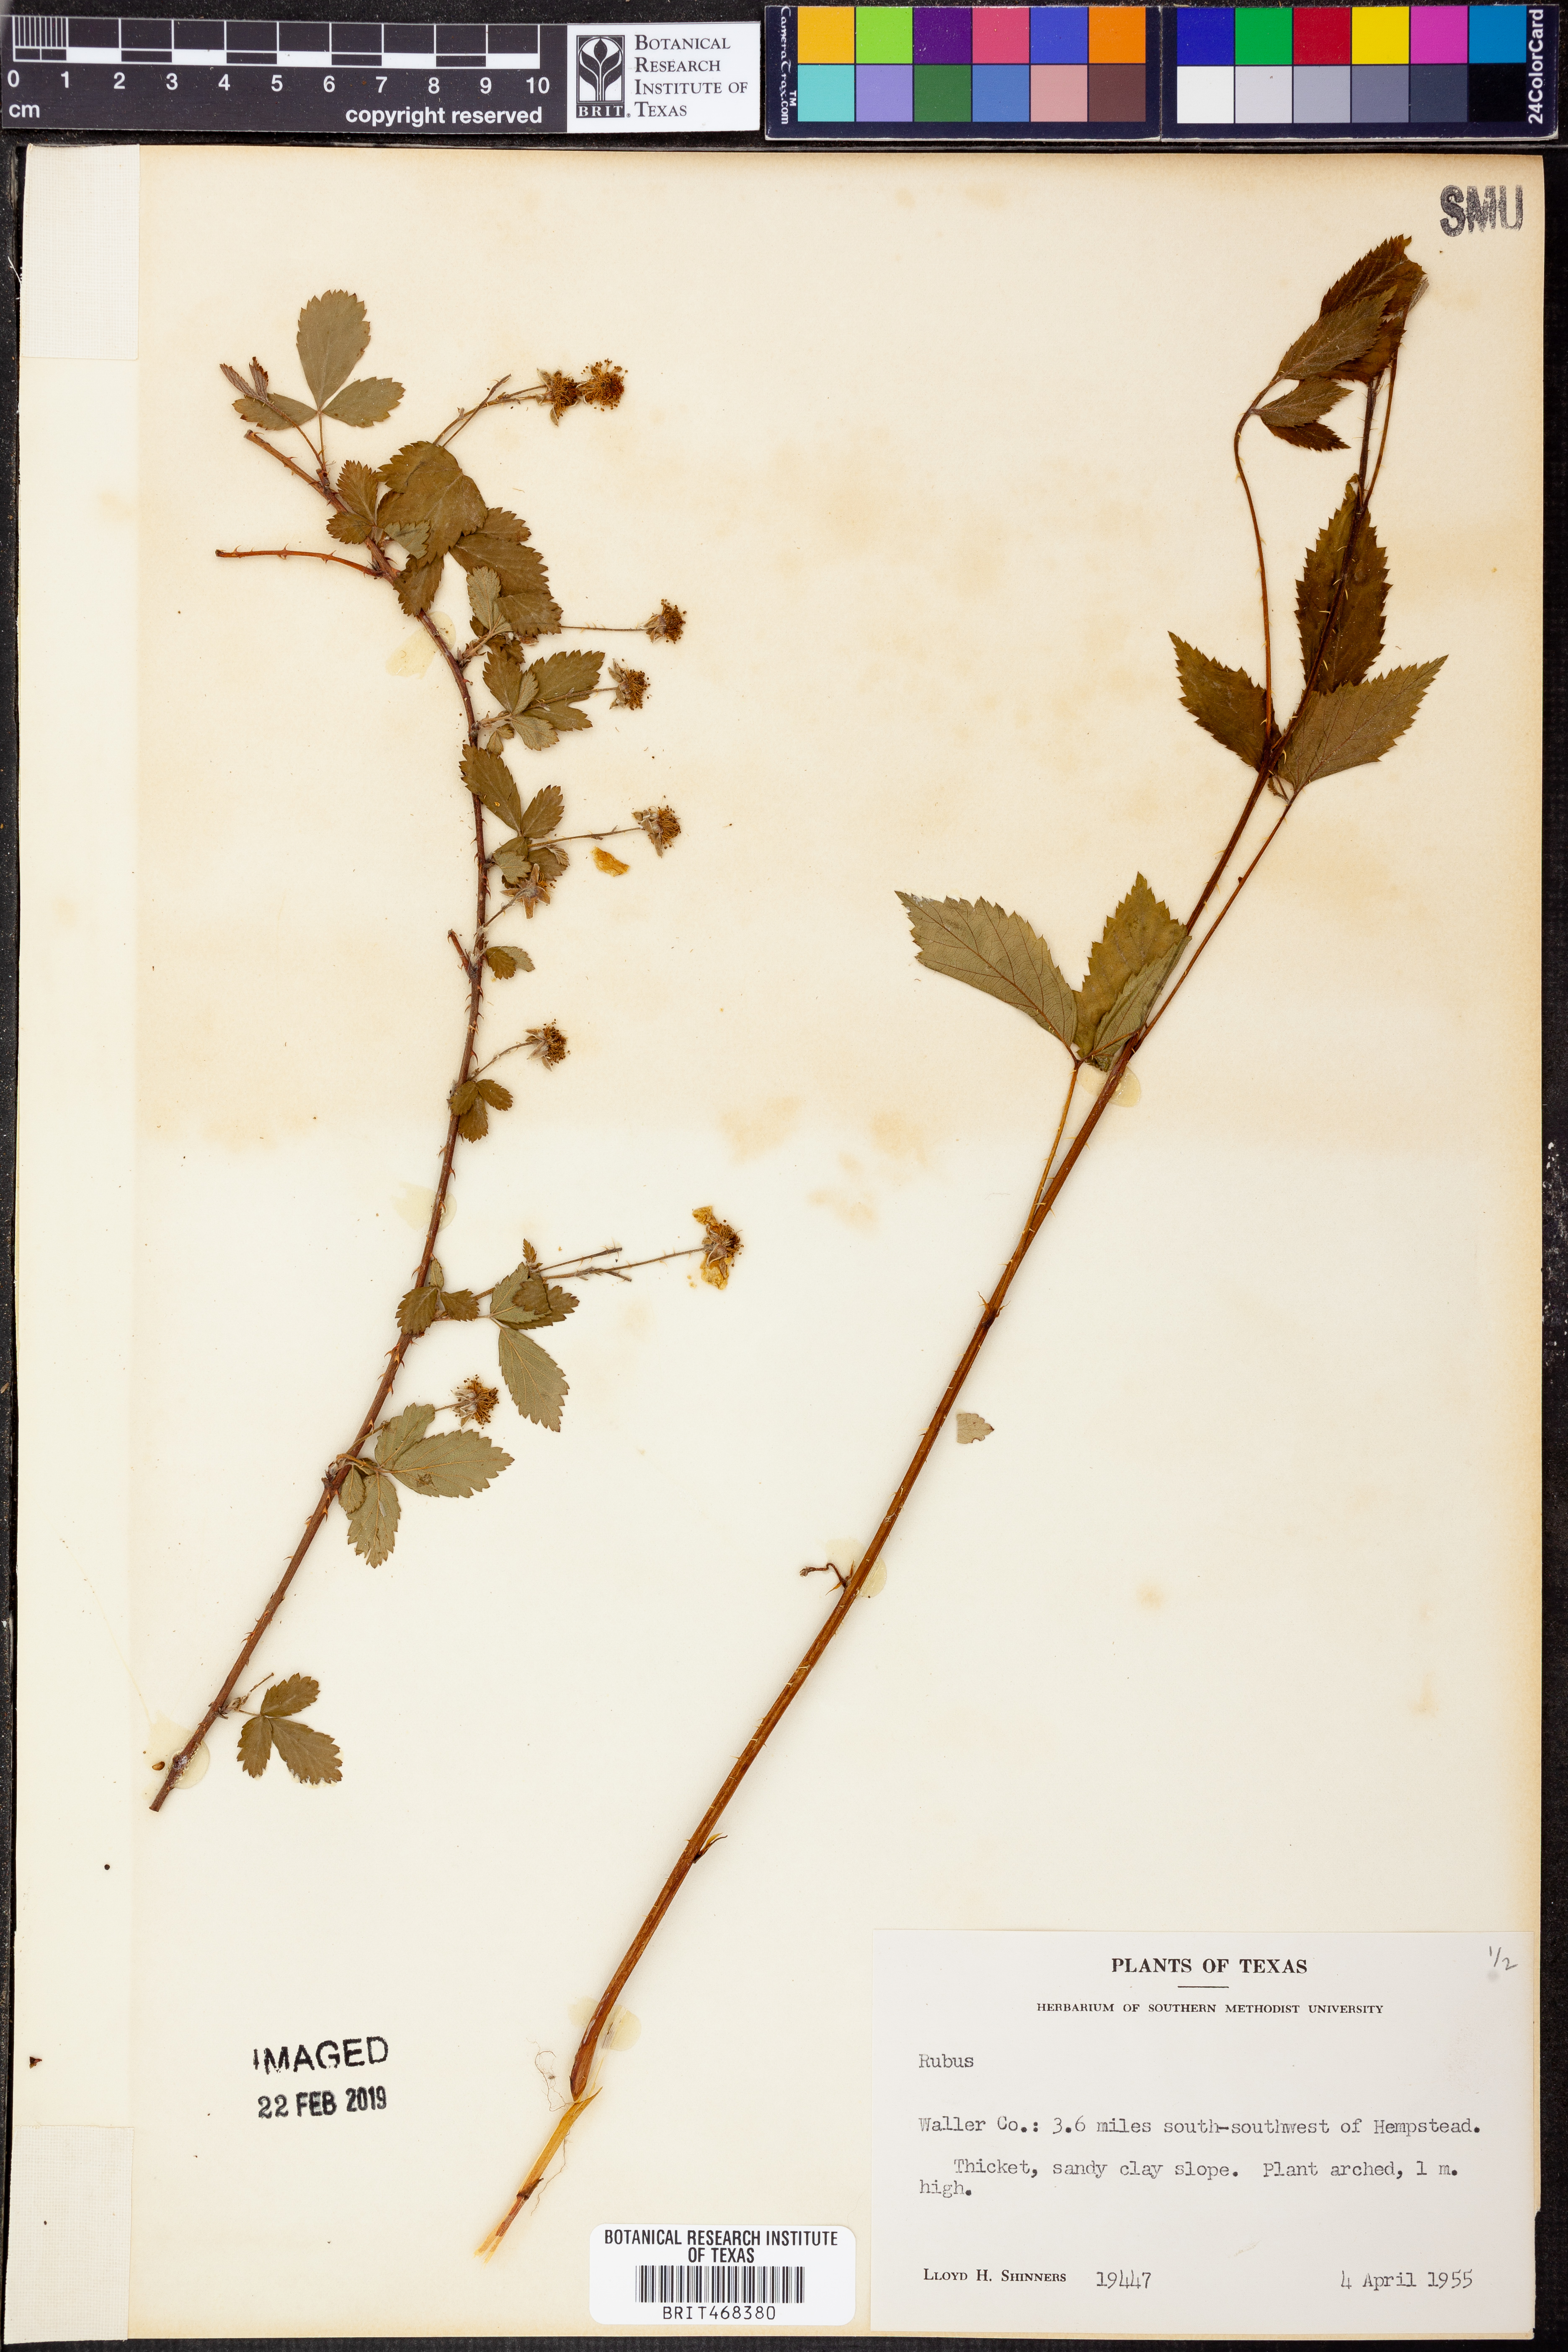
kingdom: Plantae
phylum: Tracheophyta
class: Magnoliopsida
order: Rosales
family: Rosaceae
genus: Rubus
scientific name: Rubus
